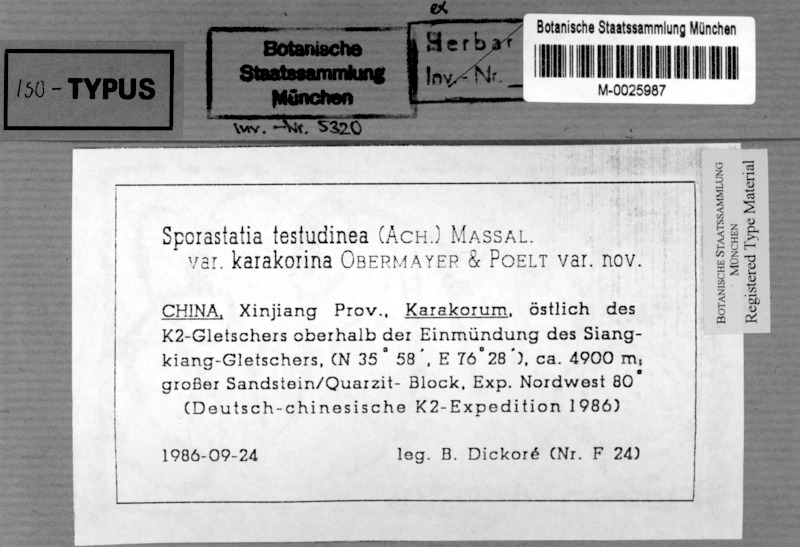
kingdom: Fungi
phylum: Ascomycota
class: Lecanoromycetes
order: Rhizocarpales
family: Sporastatiaceae
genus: Sporastatia
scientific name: Sporastatia karakorina
